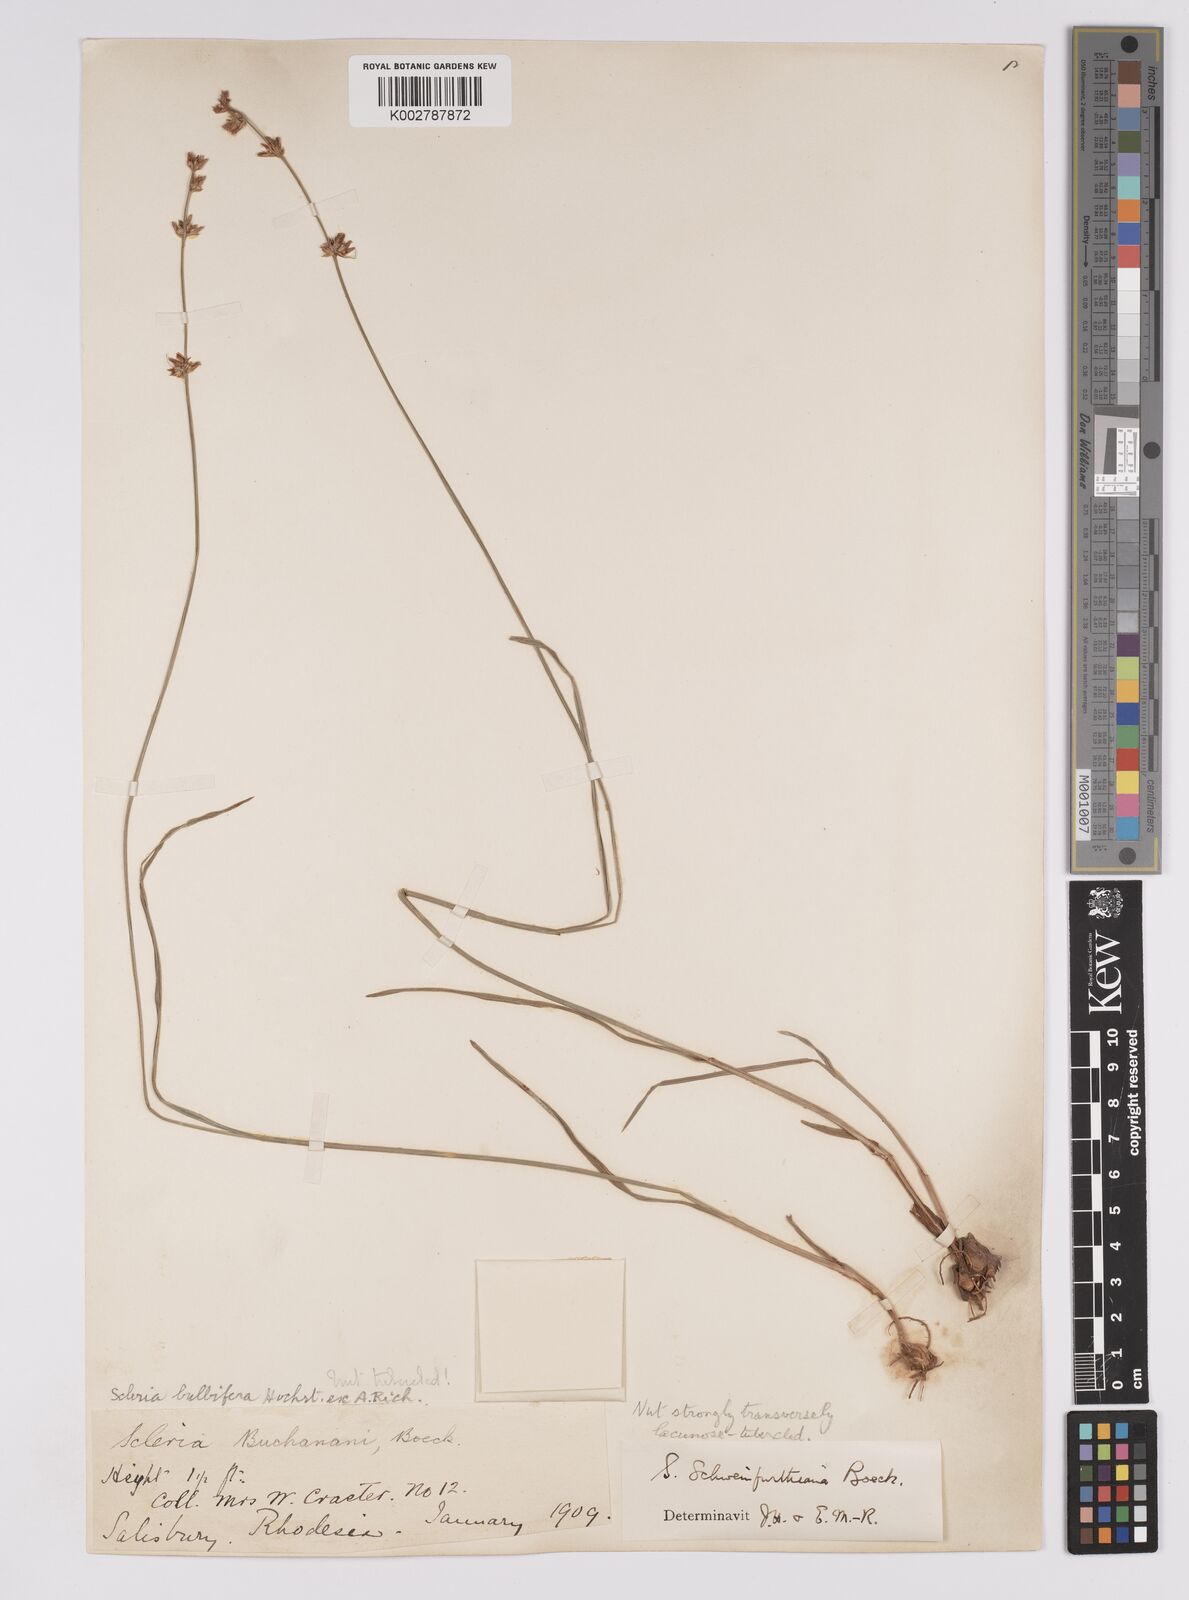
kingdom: Plantae
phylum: Tracheophyta
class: Liliopsida
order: Poales
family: Cyperaceae
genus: Scleria
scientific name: Scleria bulbifera
